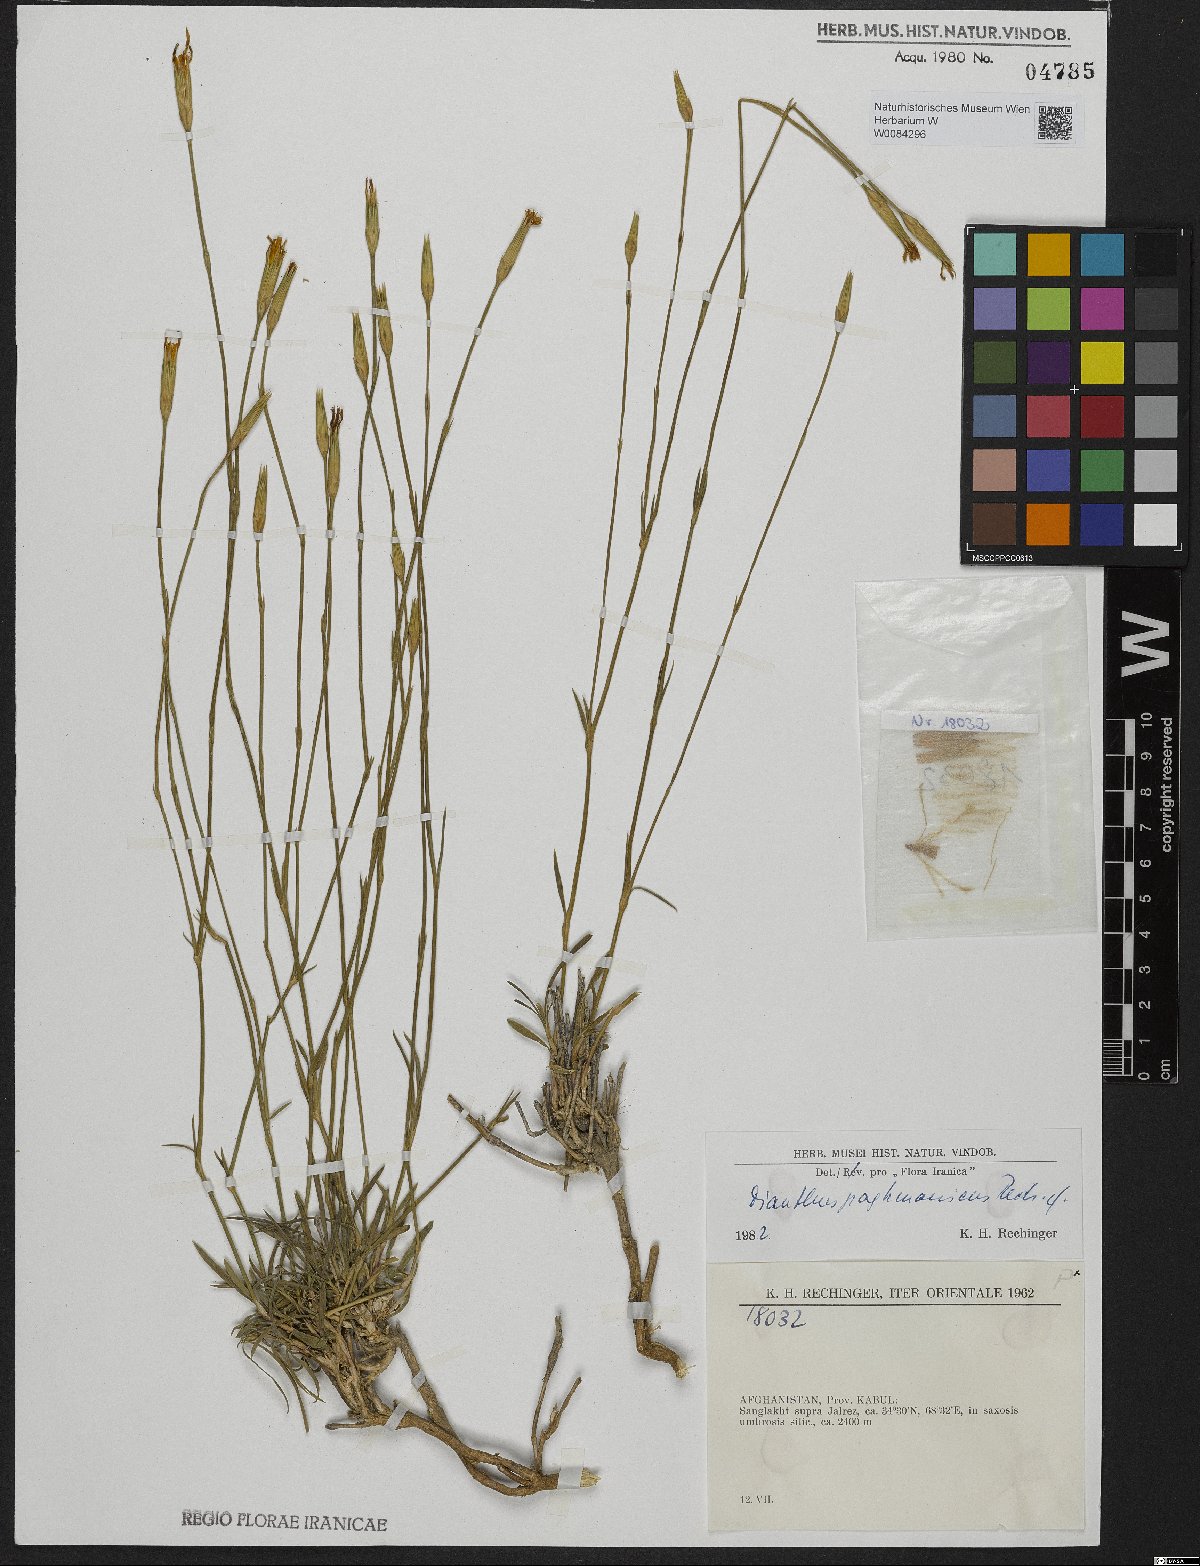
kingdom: Plantae
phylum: Tracheophyta
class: Magnoliopsida
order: Caryophyllales
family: Caryophyllaceae
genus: Dianthus
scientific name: Dianthus paghmanicus
